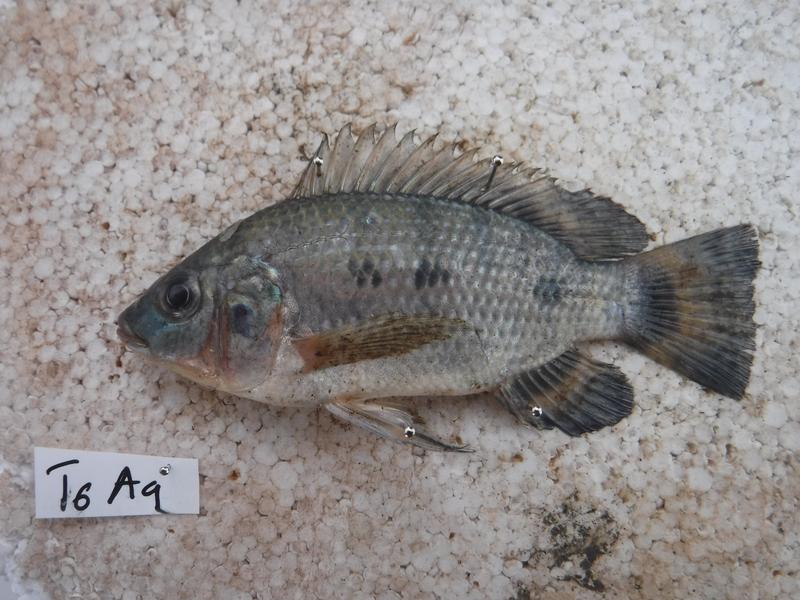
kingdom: Animalia
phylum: Chordata
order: Perciformes
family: Cichlidae
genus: Oreochromis
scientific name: Oreochromis urolepis
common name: Wami tilapia
